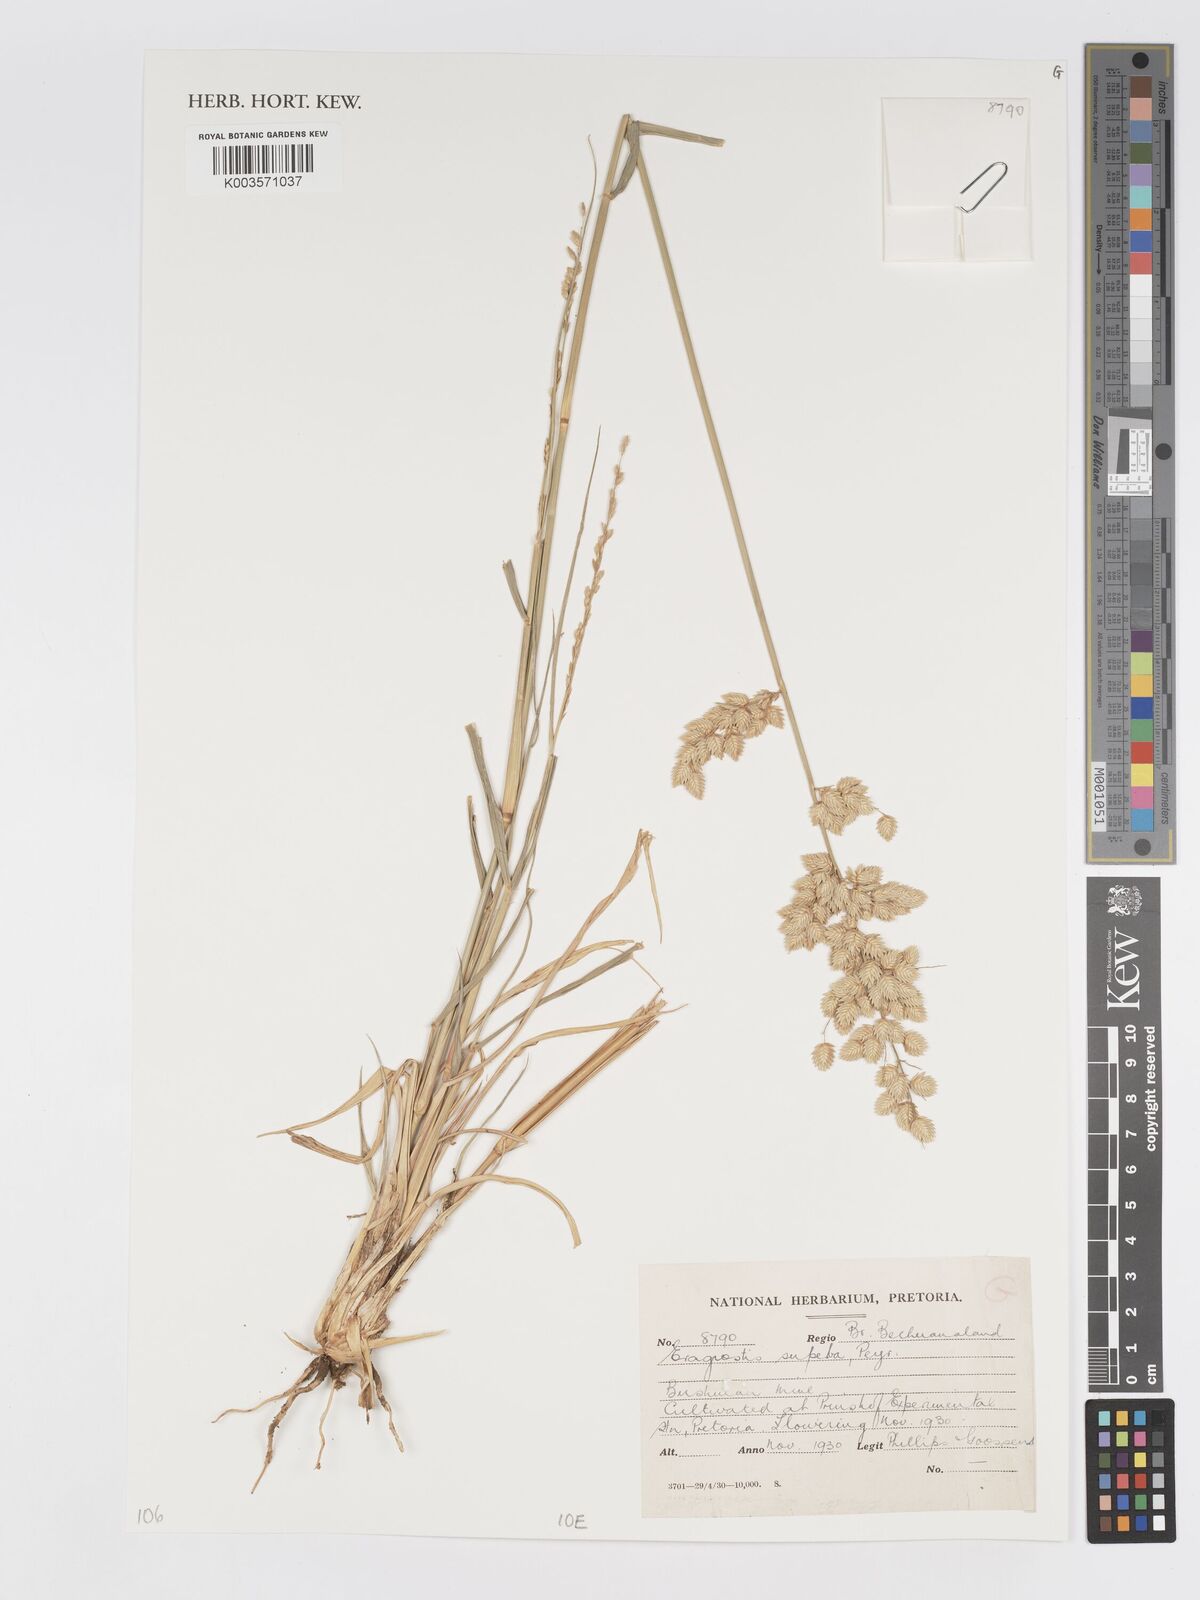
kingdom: Plantae
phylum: Tracheophyta
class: Liliopsida
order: Poales
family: Poaceae
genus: Eragrostis
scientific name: Eragrostis superba
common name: Wilman lovegrass
